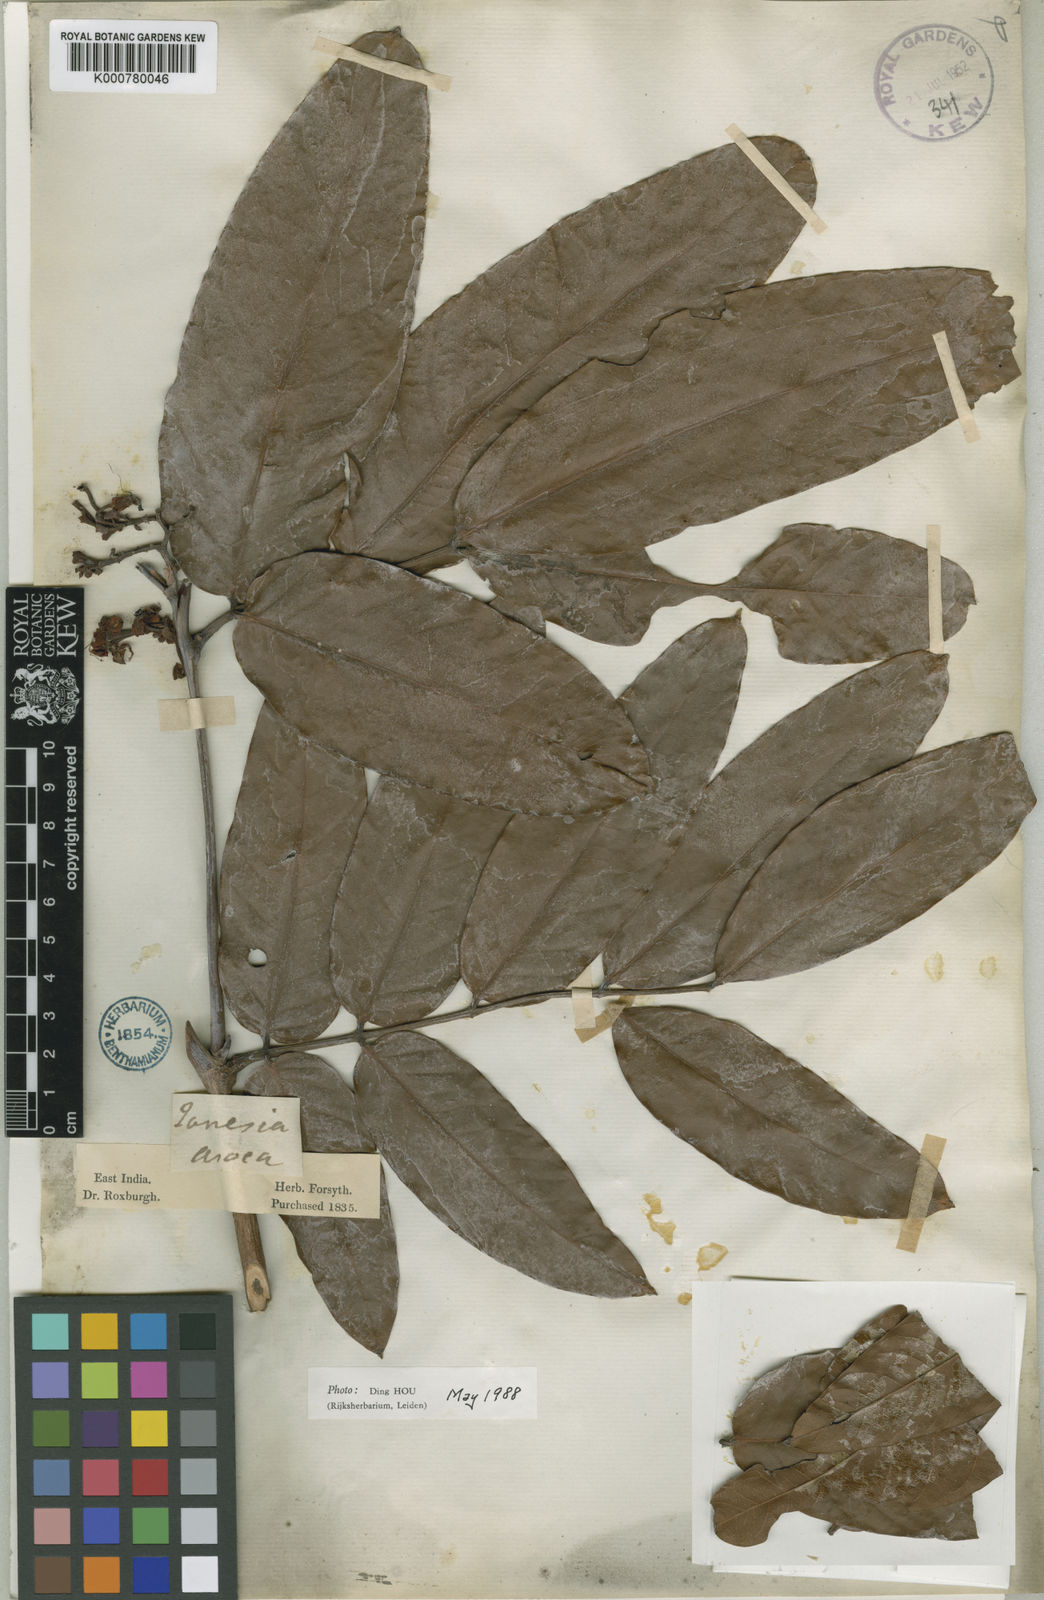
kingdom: Plantae
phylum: Tracheophyta
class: Magnoliopsida
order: Fabales
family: Fabaceae
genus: Saraca
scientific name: Saraca asoca
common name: Asoka-tree
